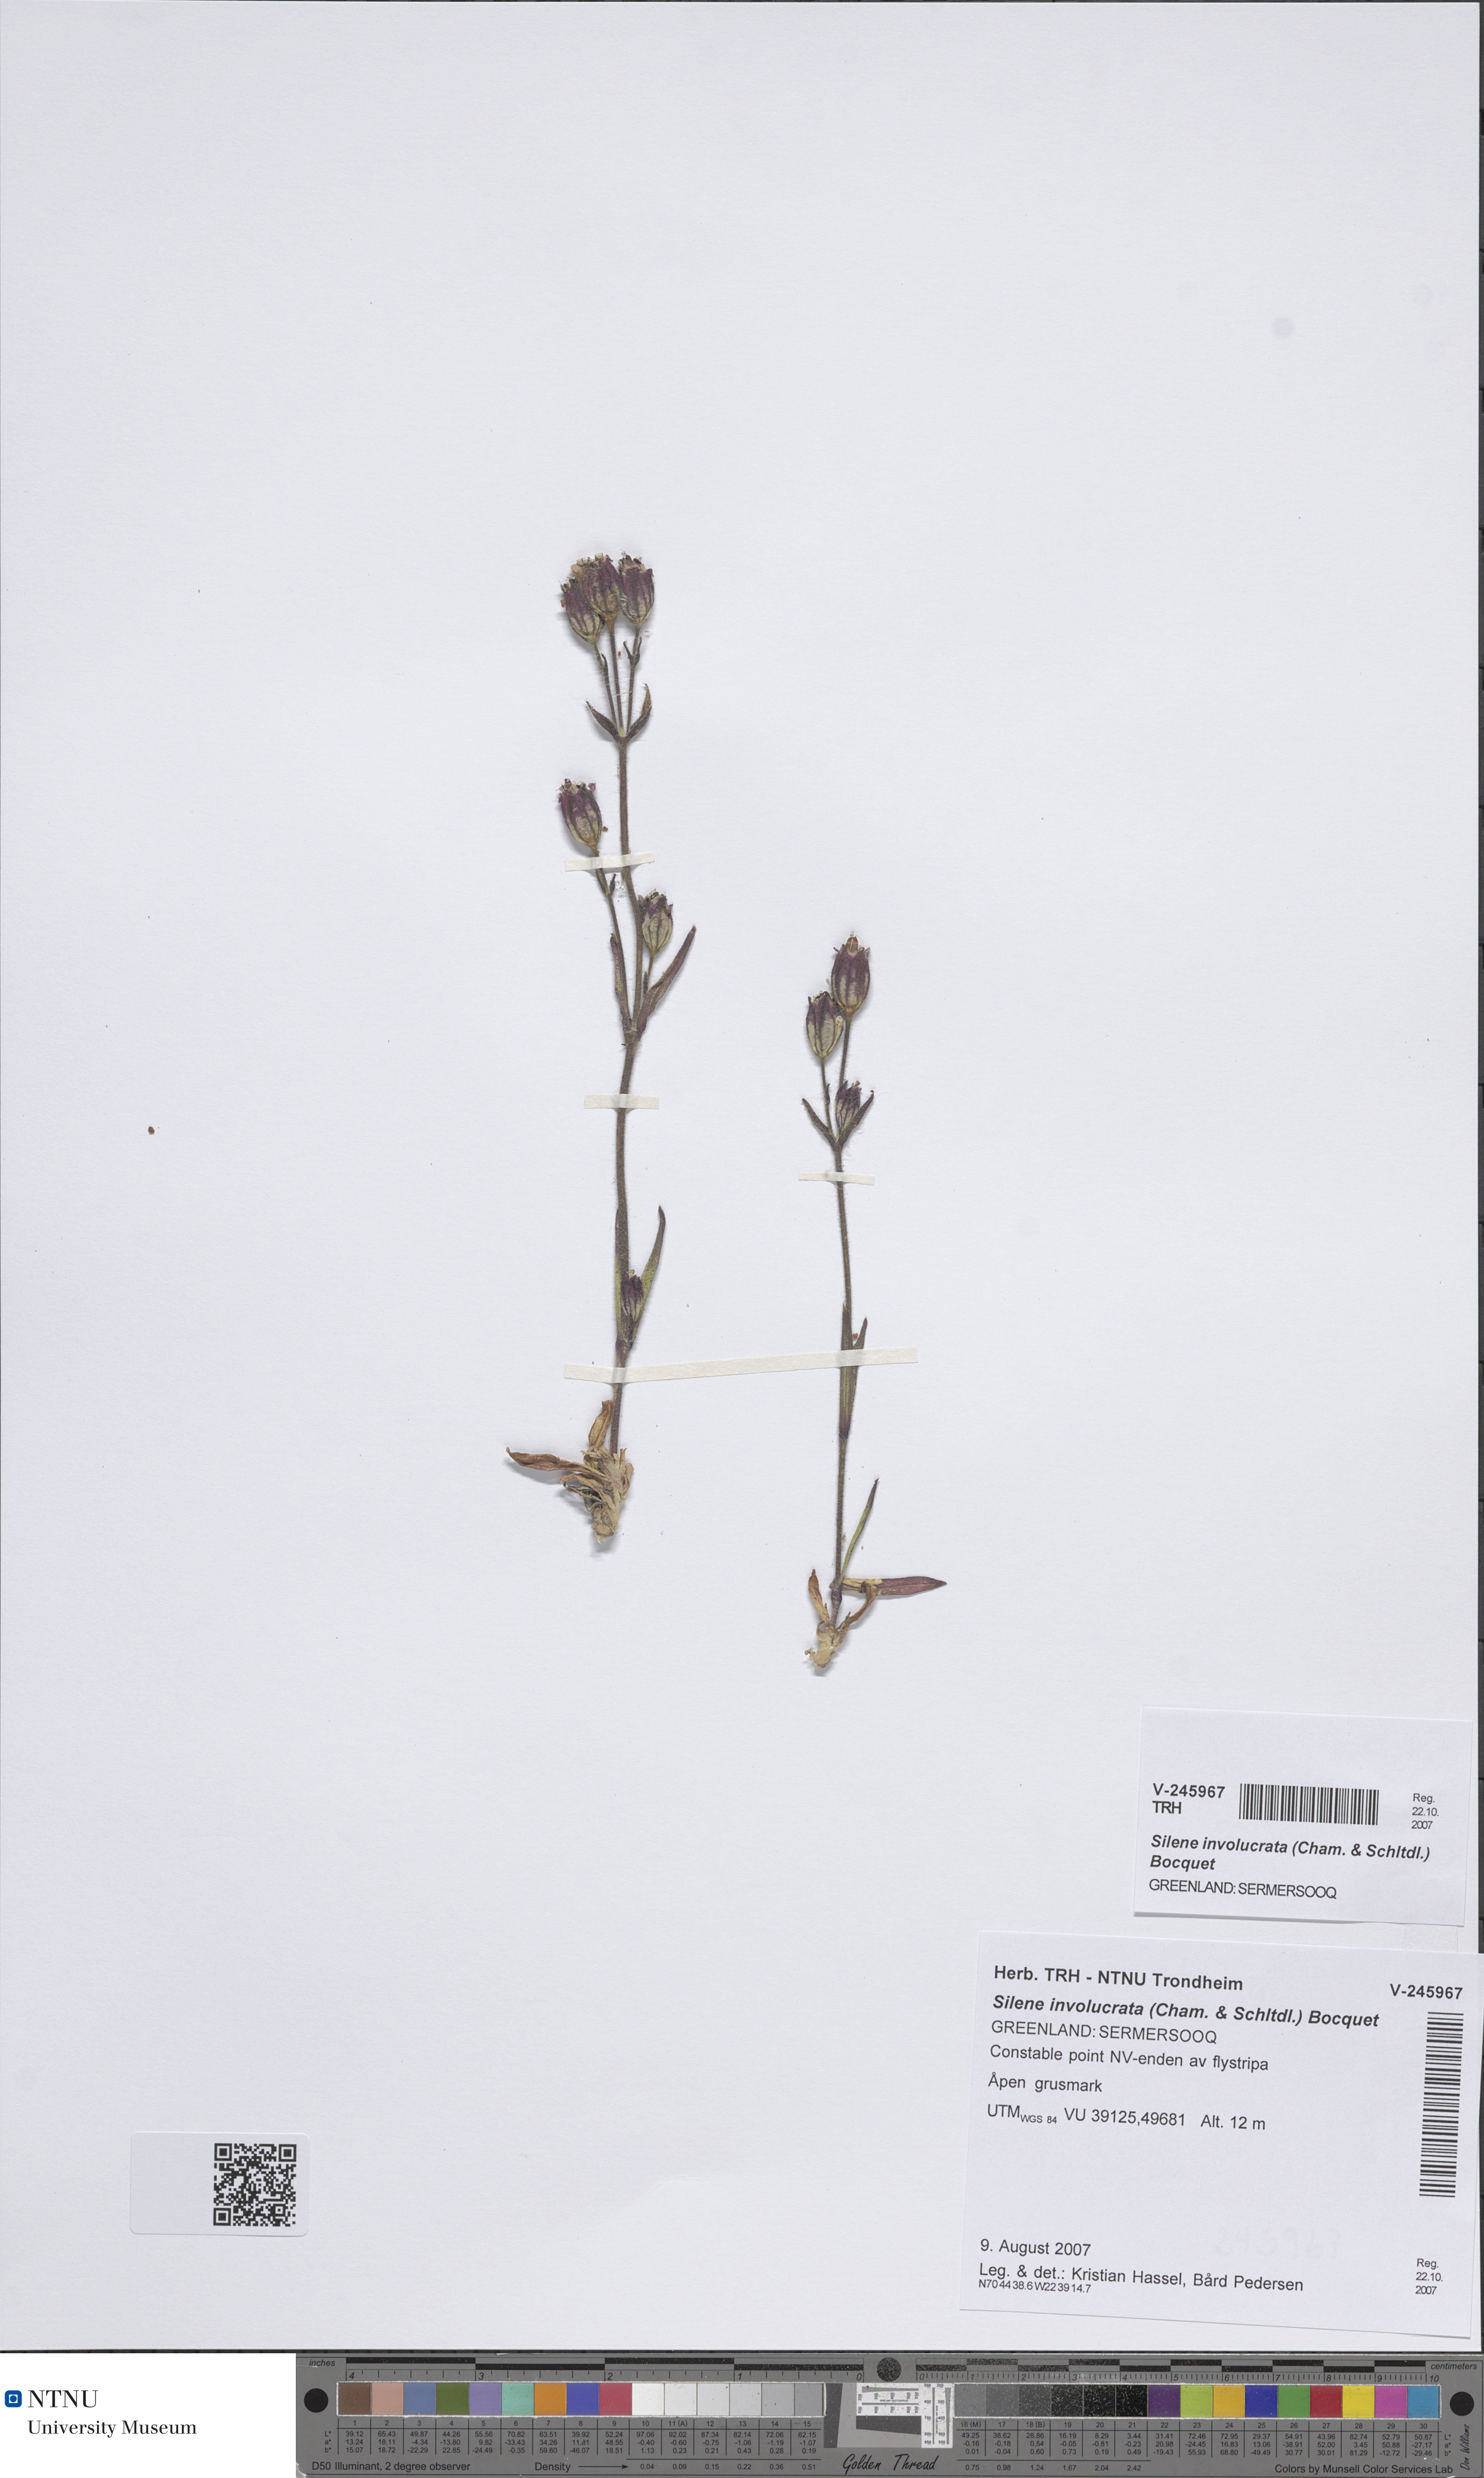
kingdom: Plantae
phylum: Tracheophyta
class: Magnoliopsida
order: Caryophyllales
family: Caryophyllaceae
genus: Silene
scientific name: Silene involucrata
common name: Greater arctic campion
